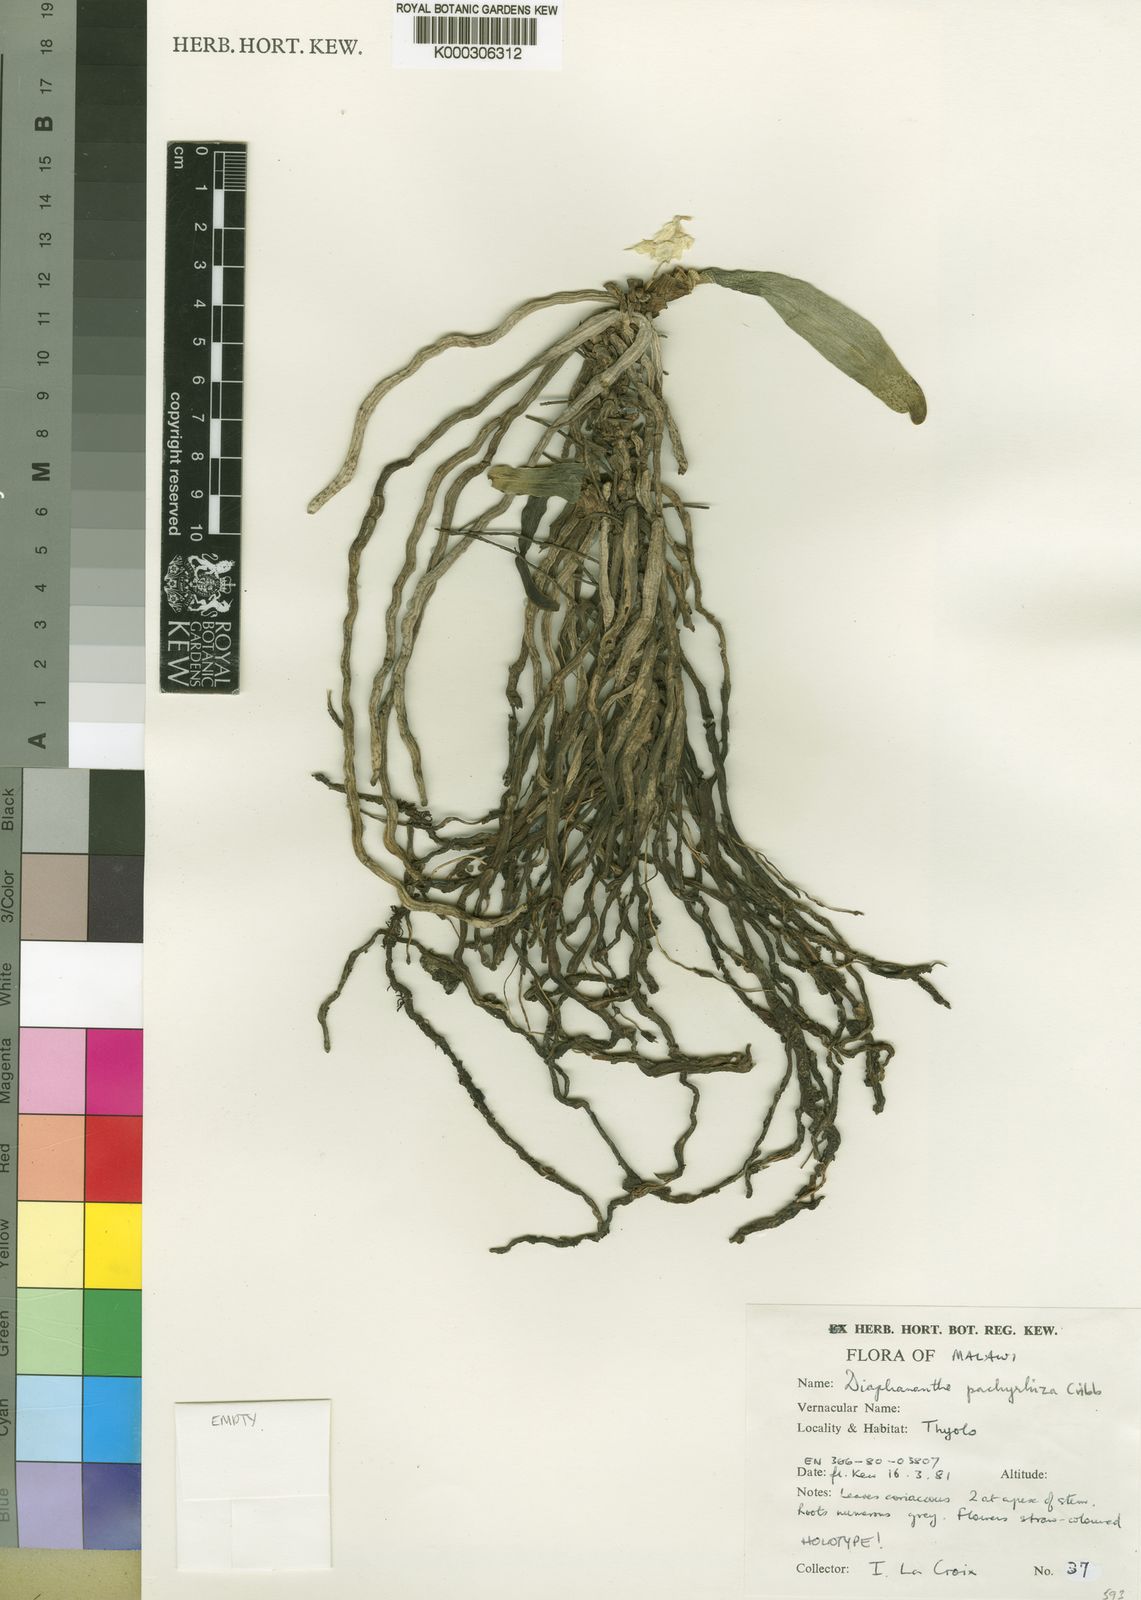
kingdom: Plantae
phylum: Tracheophyta
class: Liliopsida
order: Asparagales
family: Orchidaceae
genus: Rhipidoglossum
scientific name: Rhipidoglossum pulchellum
